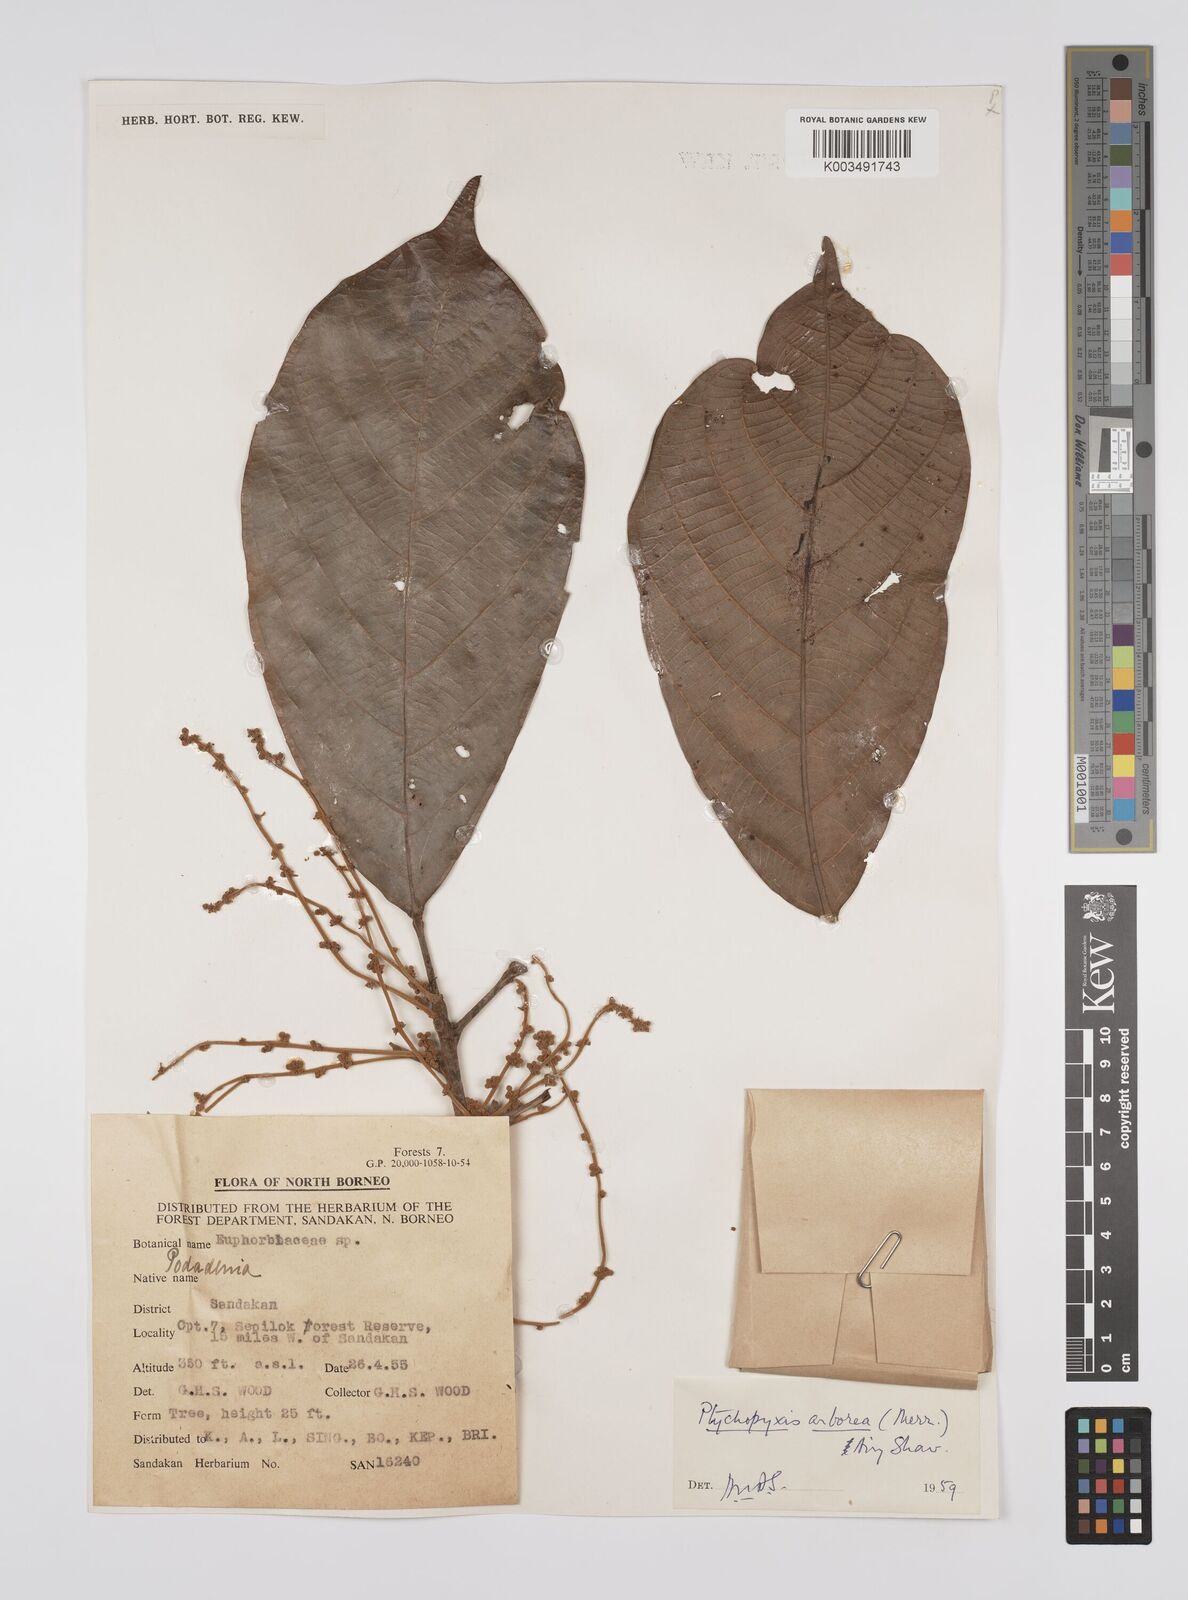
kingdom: Plantae
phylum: Tracheophyta
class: Magnoliopsida
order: Malpighiales
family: Euphorbiaceae
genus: Ptychopyxis
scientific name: Ptychopyxis arborea
